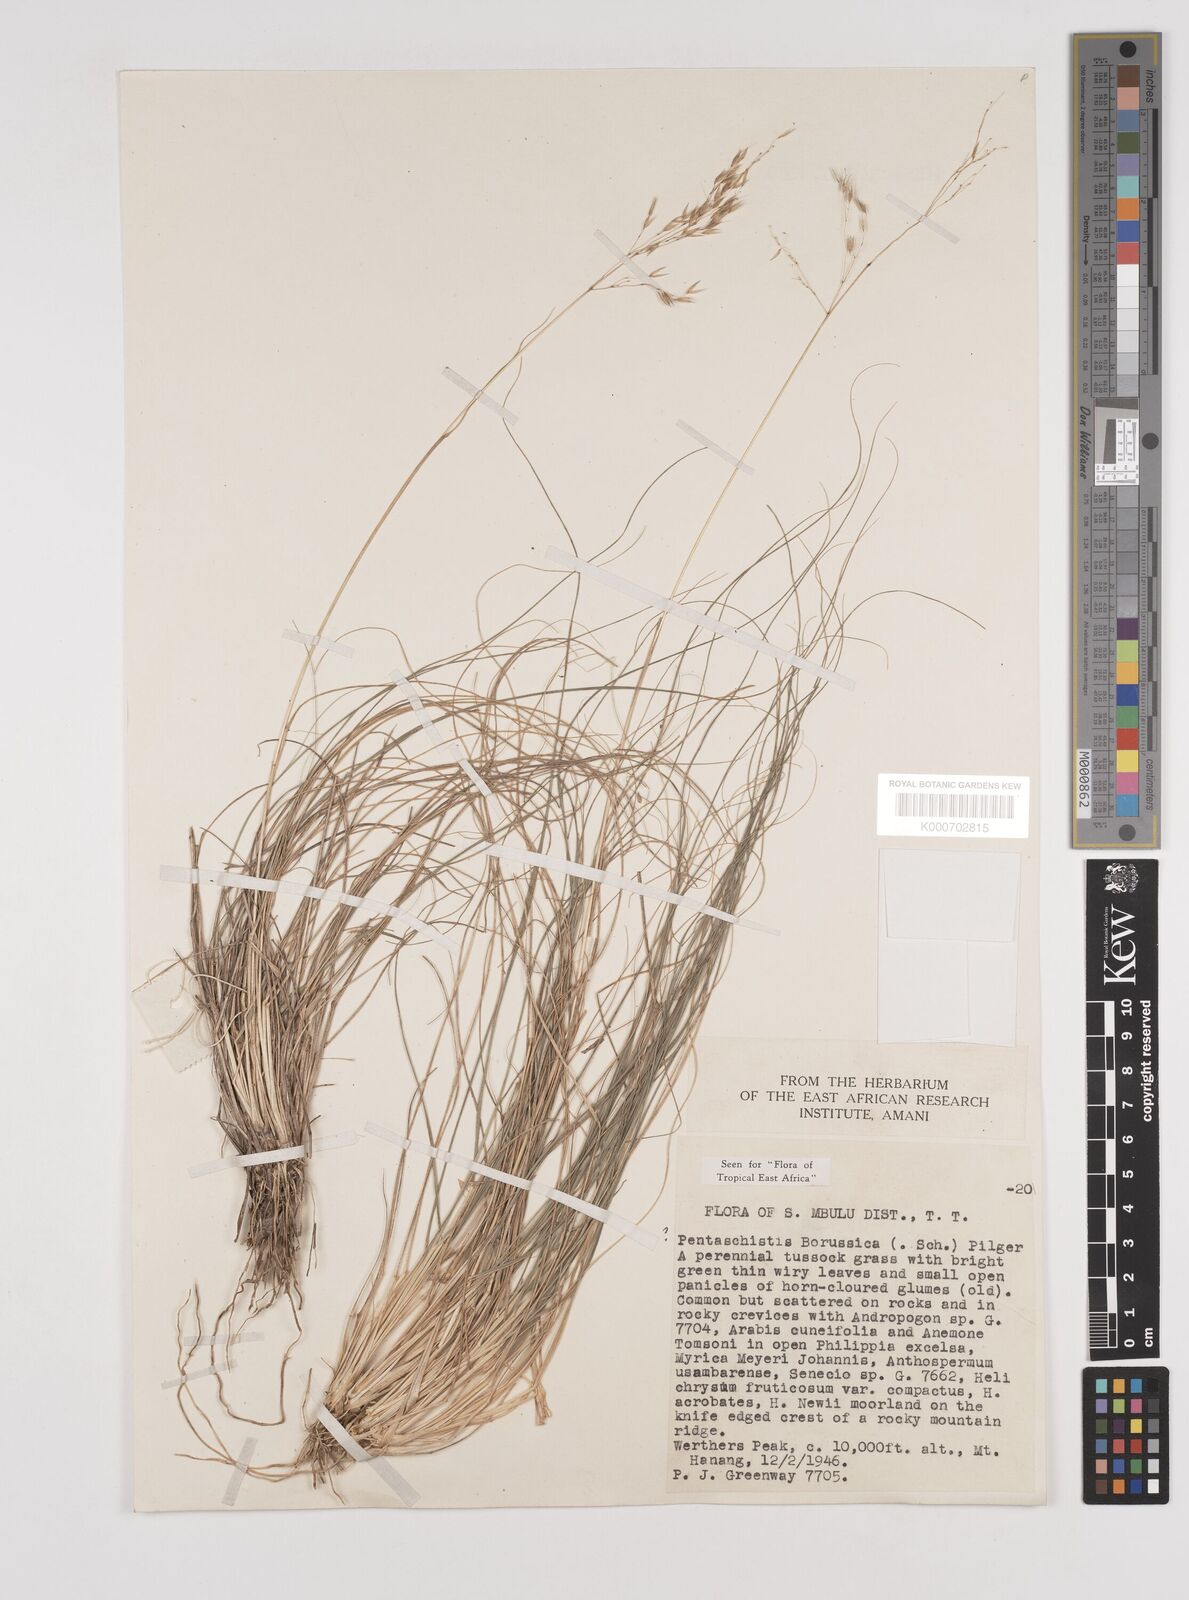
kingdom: Plantae
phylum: Tracheophyta
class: Liliopsida
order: Poales
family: Poaceae
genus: Pentameris
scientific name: Pentameris borussica
